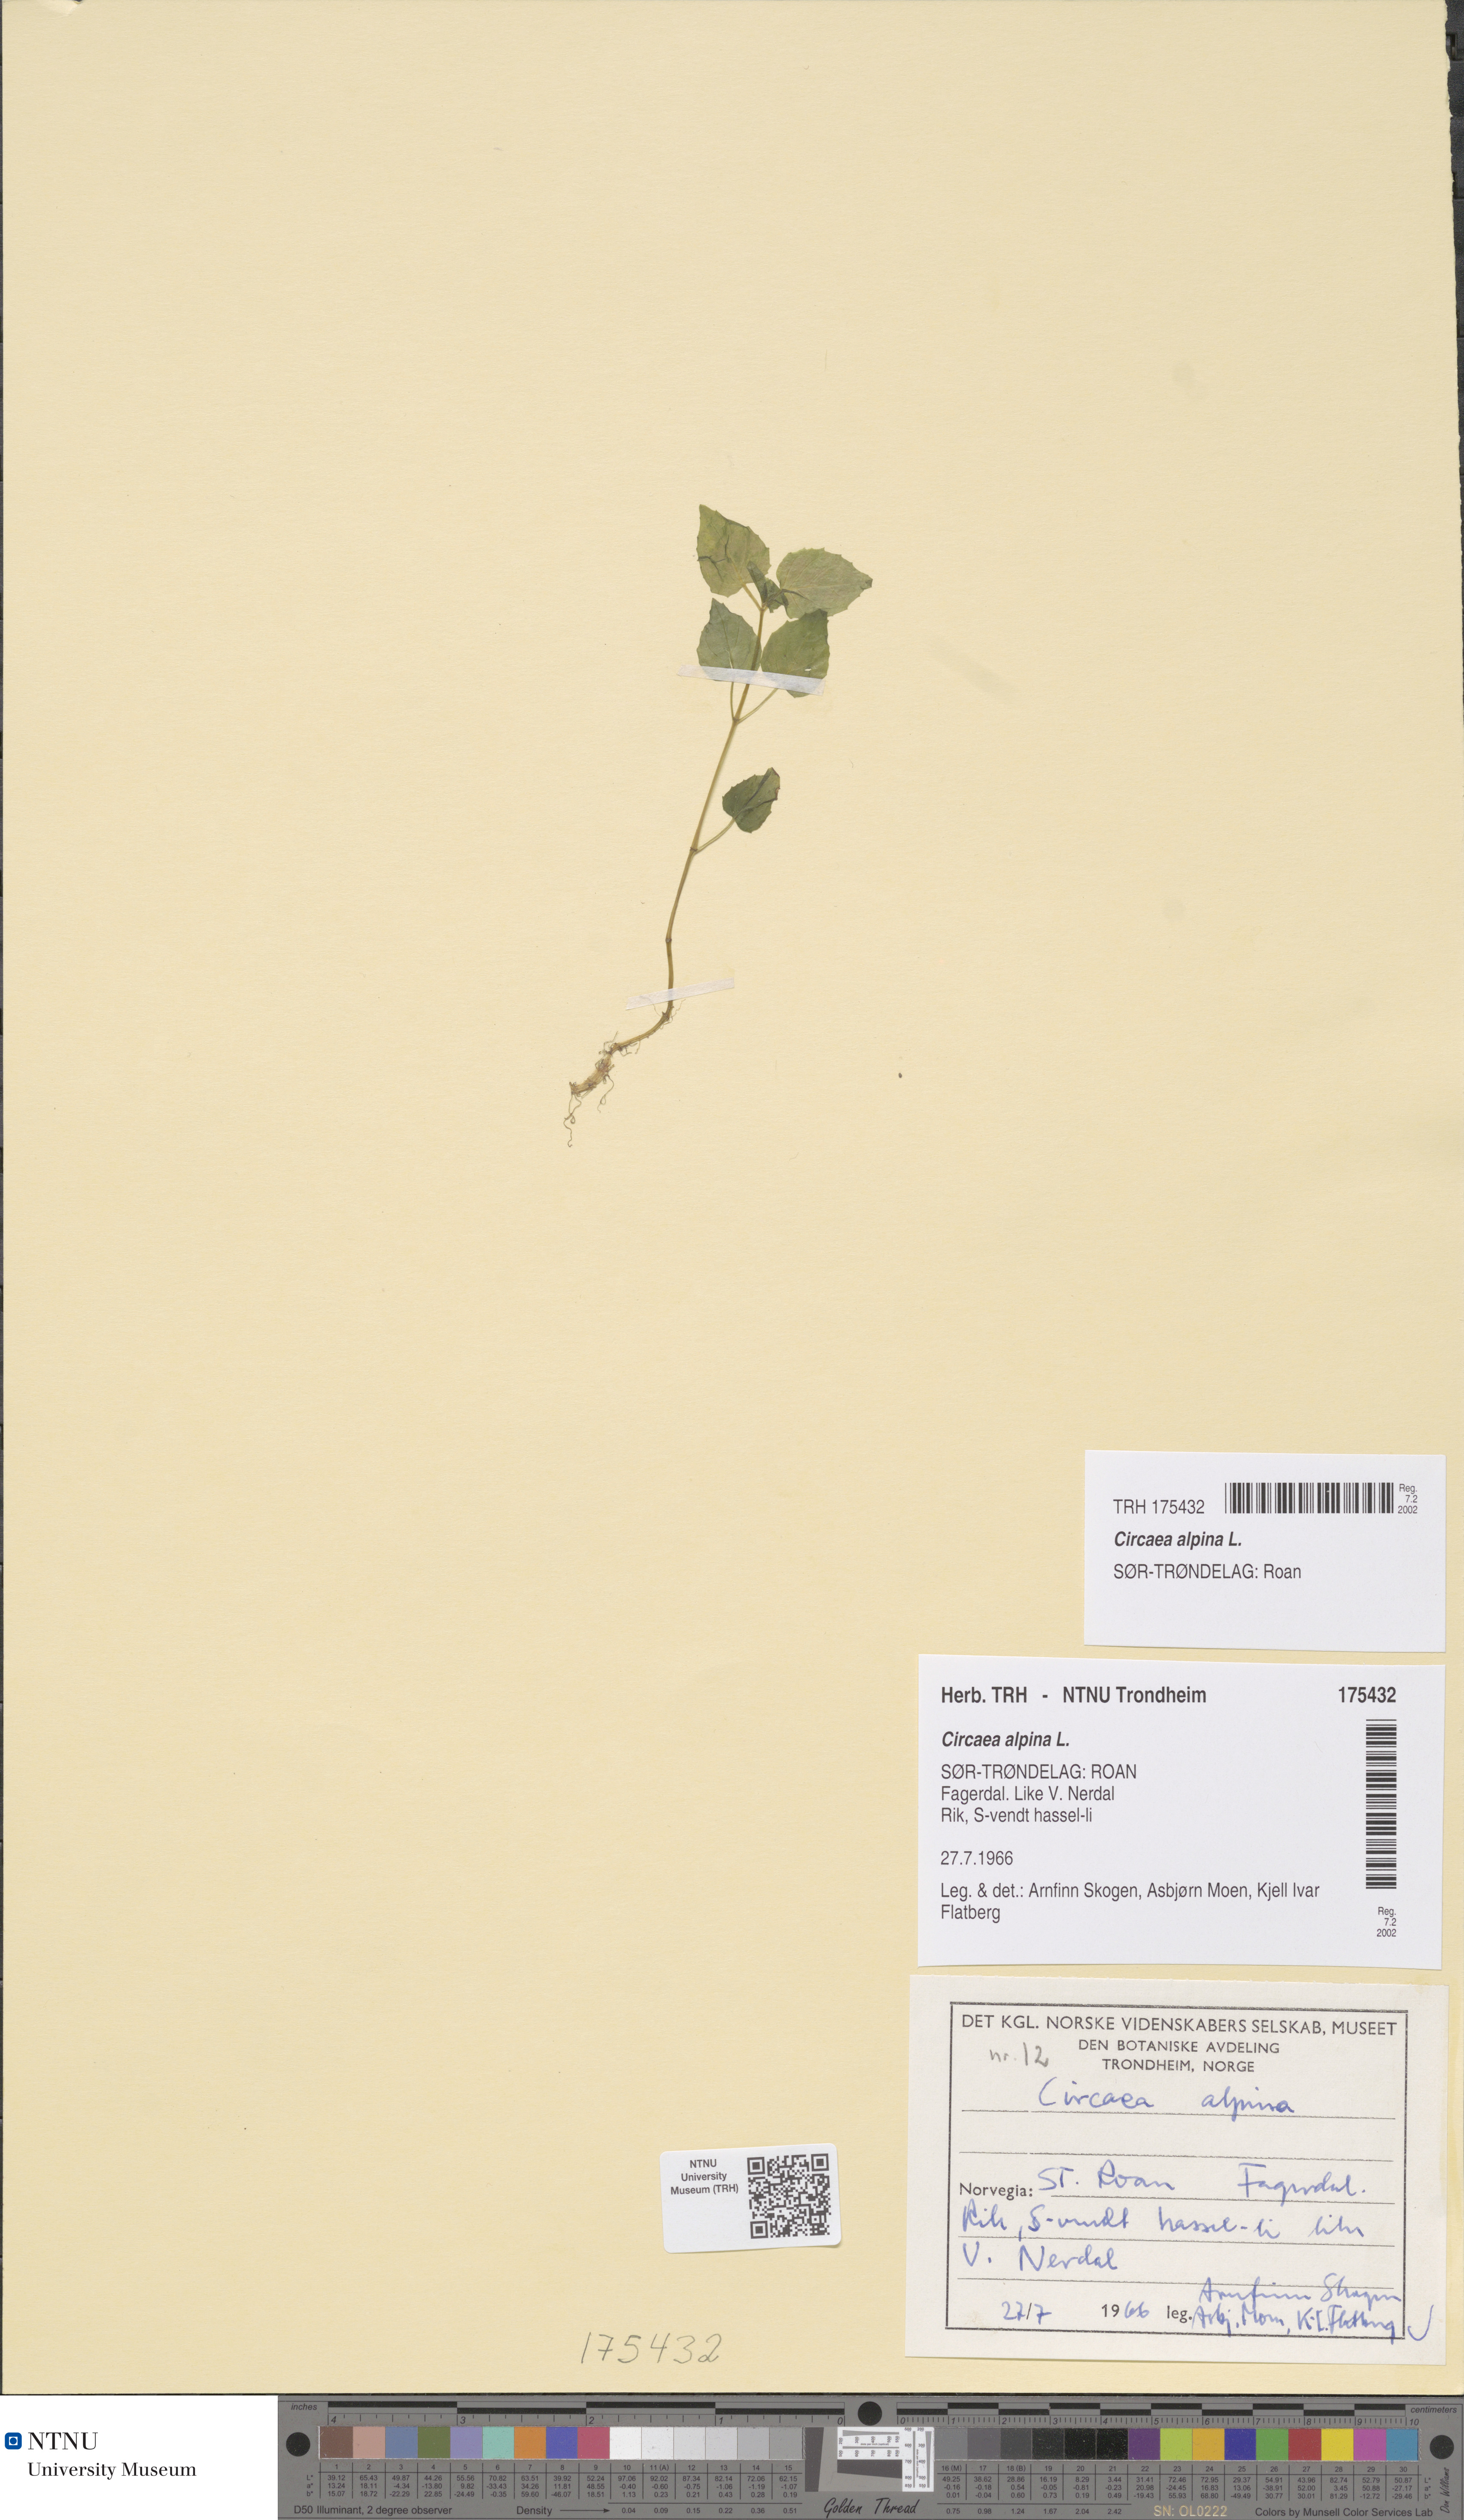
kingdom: Plantae
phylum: Tracheophyta
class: Magnoliopsida
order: Myrtales
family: Onagraceae
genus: Circaea
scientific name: Circaea alpina
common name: Alpine enchanter's-nightshade
